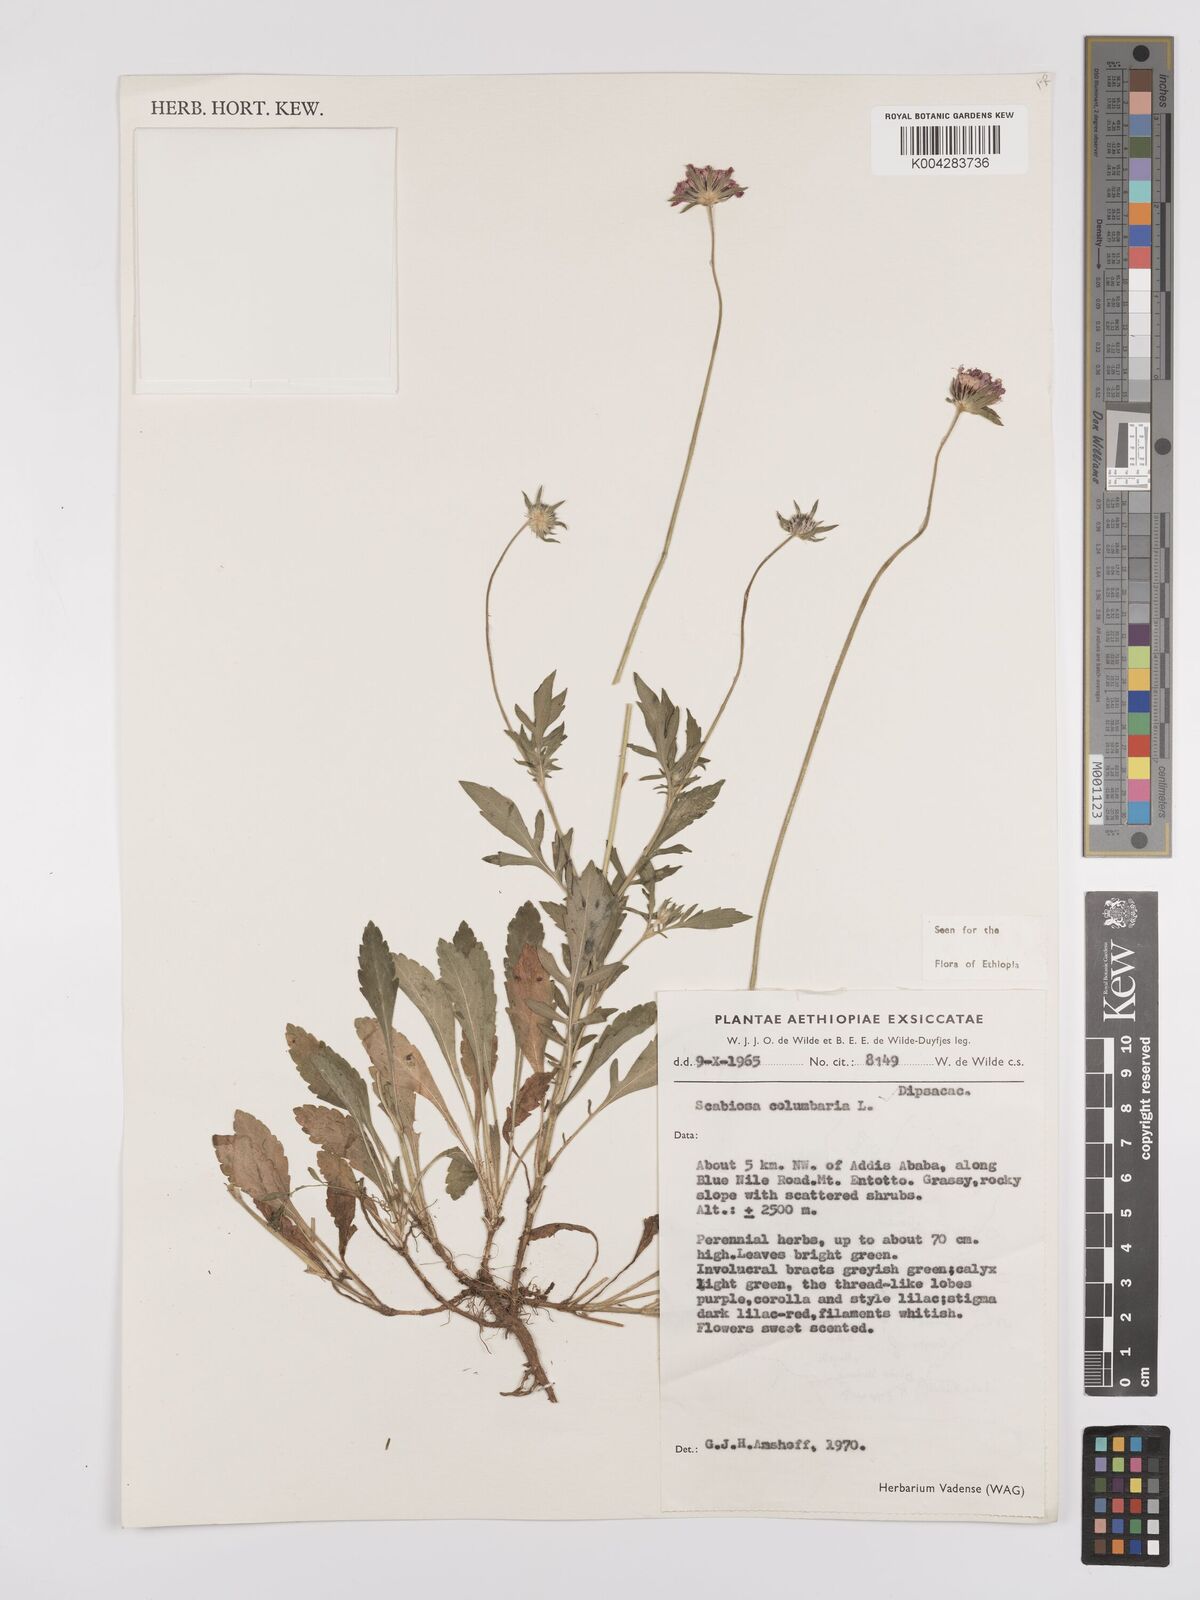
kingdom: Plantae
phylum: Tracheophyta
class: Magnoliopsida
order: Dipsacales
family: Caprifoliaceae
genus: Scabiosa
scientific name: Scabiosa columbaria
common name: Small scabious
